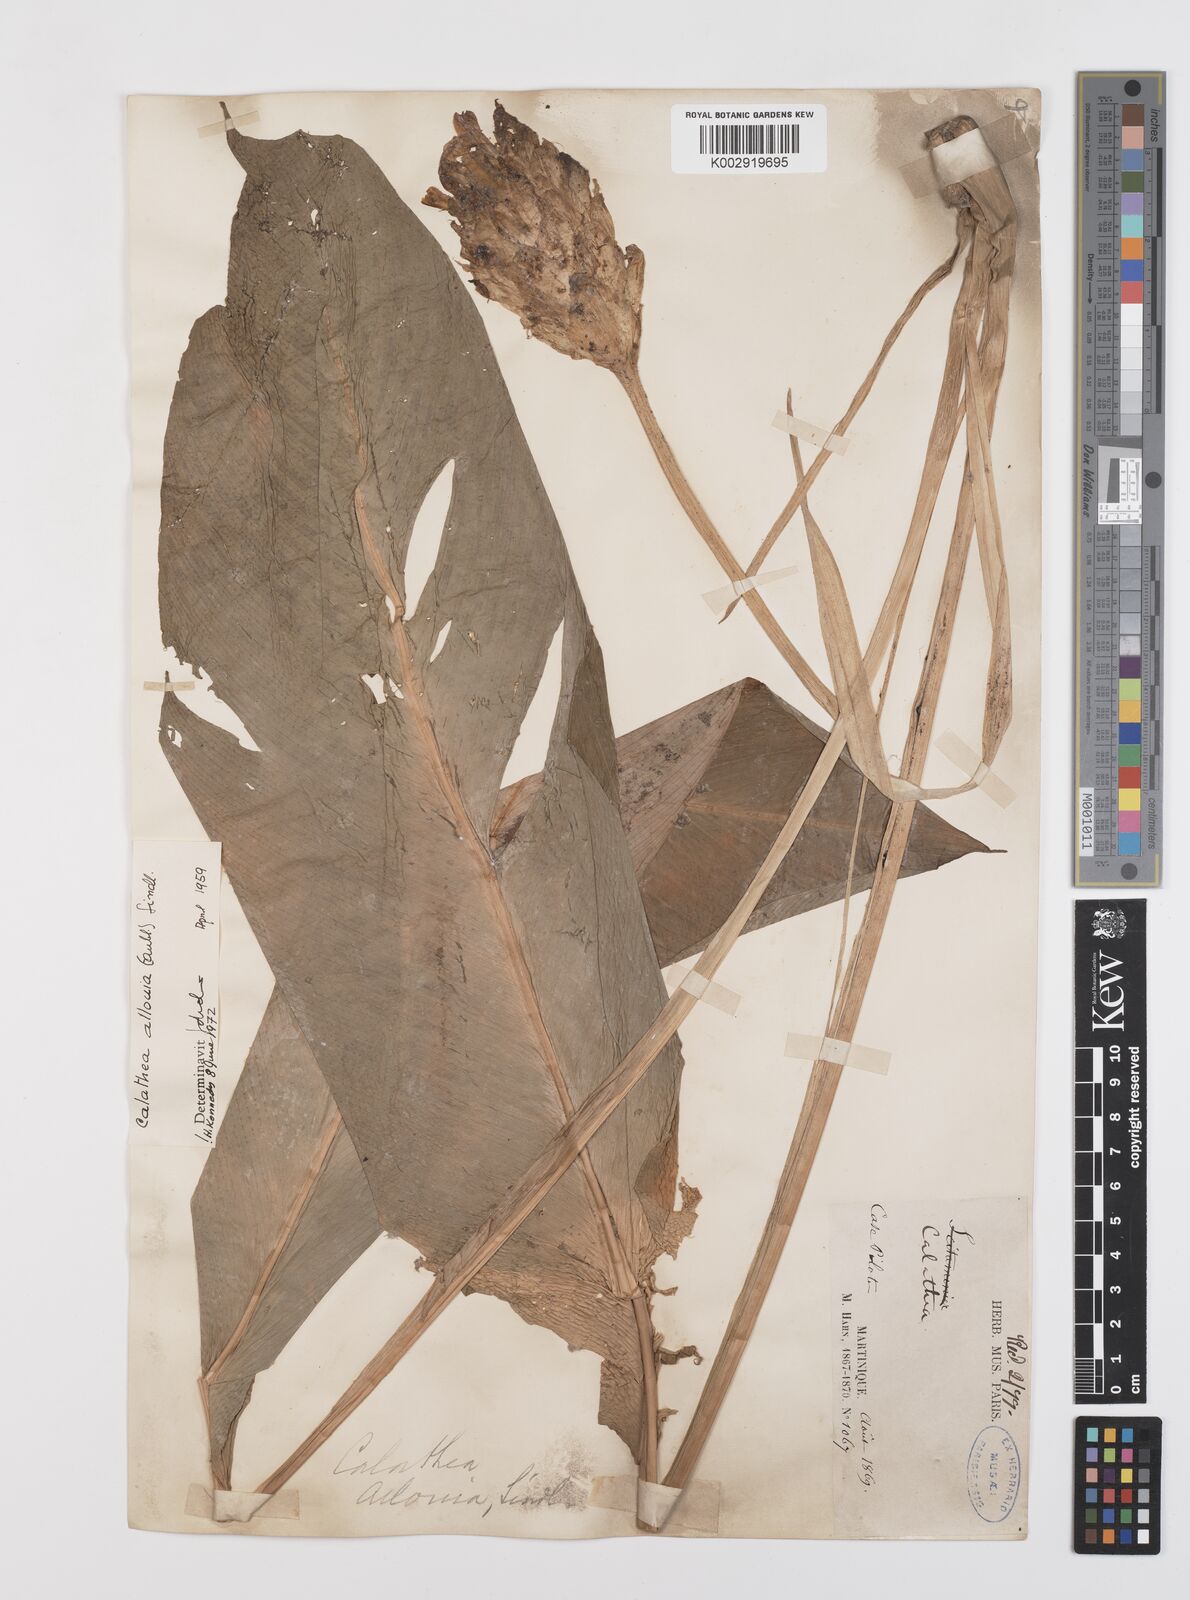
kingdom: Plantae
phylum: Tracheophyta
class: Liliopsida
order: Zingiberales
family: Marantaceae
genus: Goeppertia
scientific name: Goeppertia allouia
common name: Sweet corn-tuber
